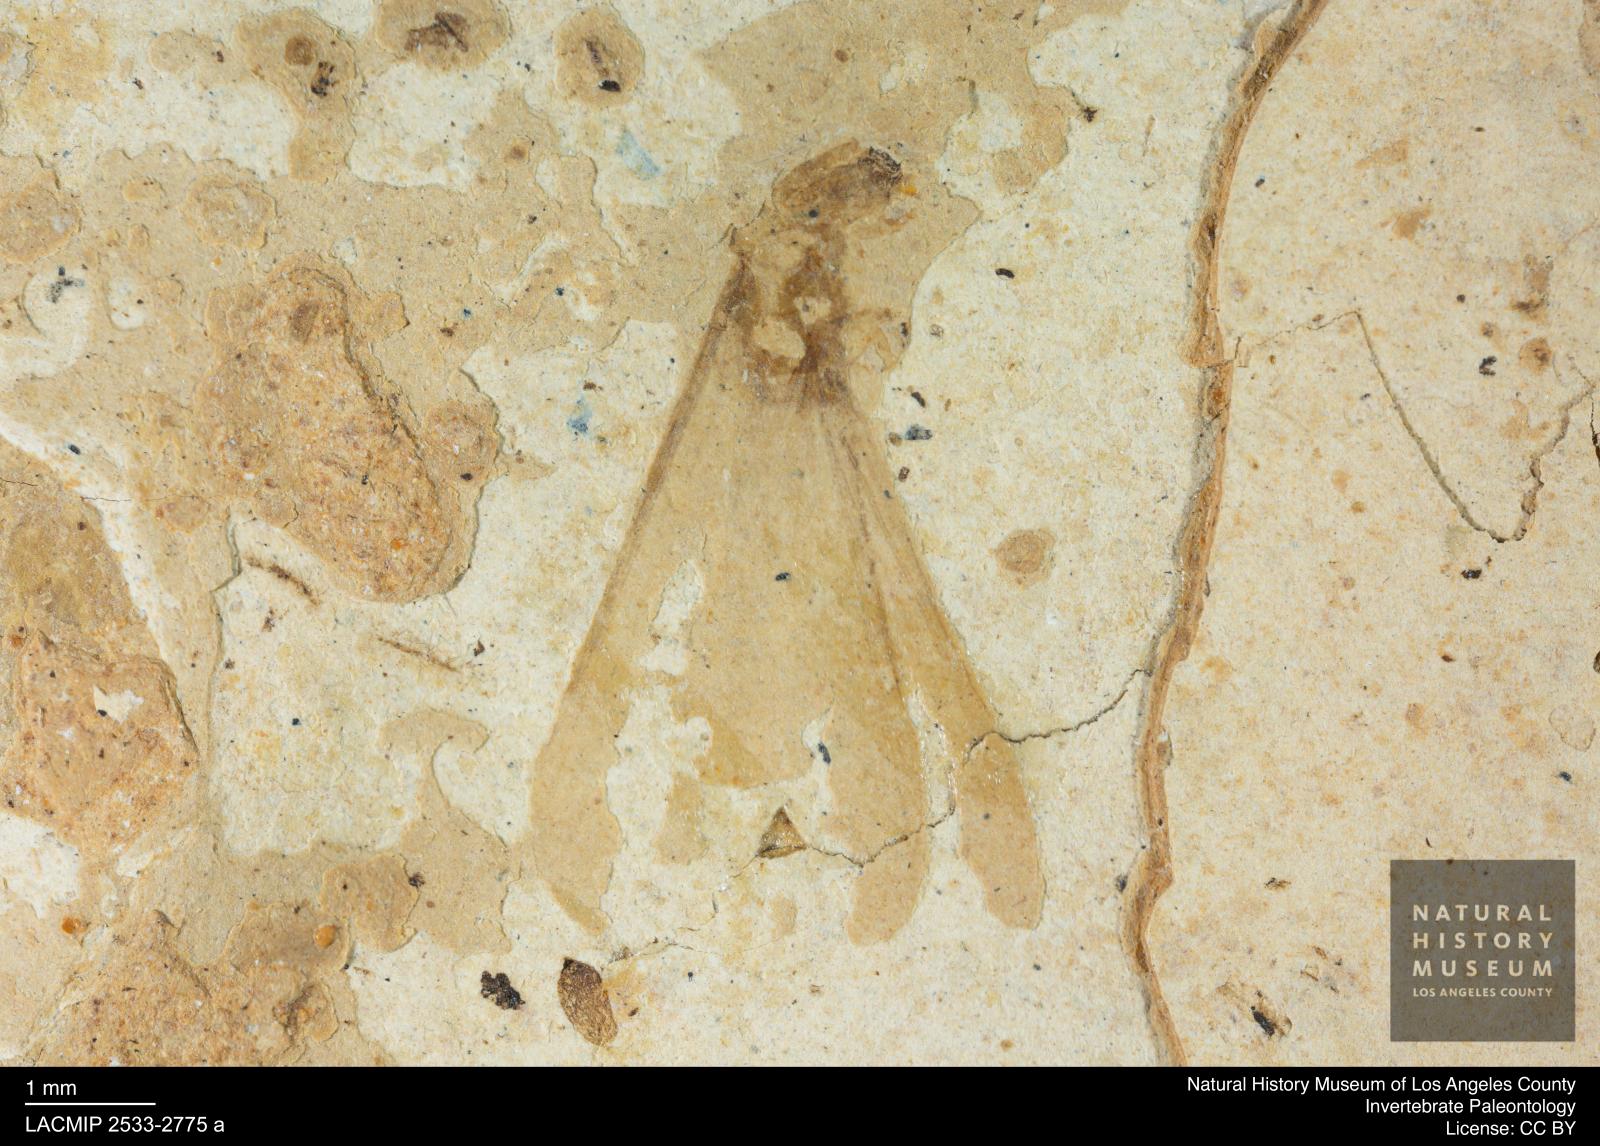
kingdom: Animalia
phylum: Arthropoda
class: Insecta
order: Blattodea
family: Kalotermitidae
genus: Kalotermes
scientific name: Kalotermes rhenanus
